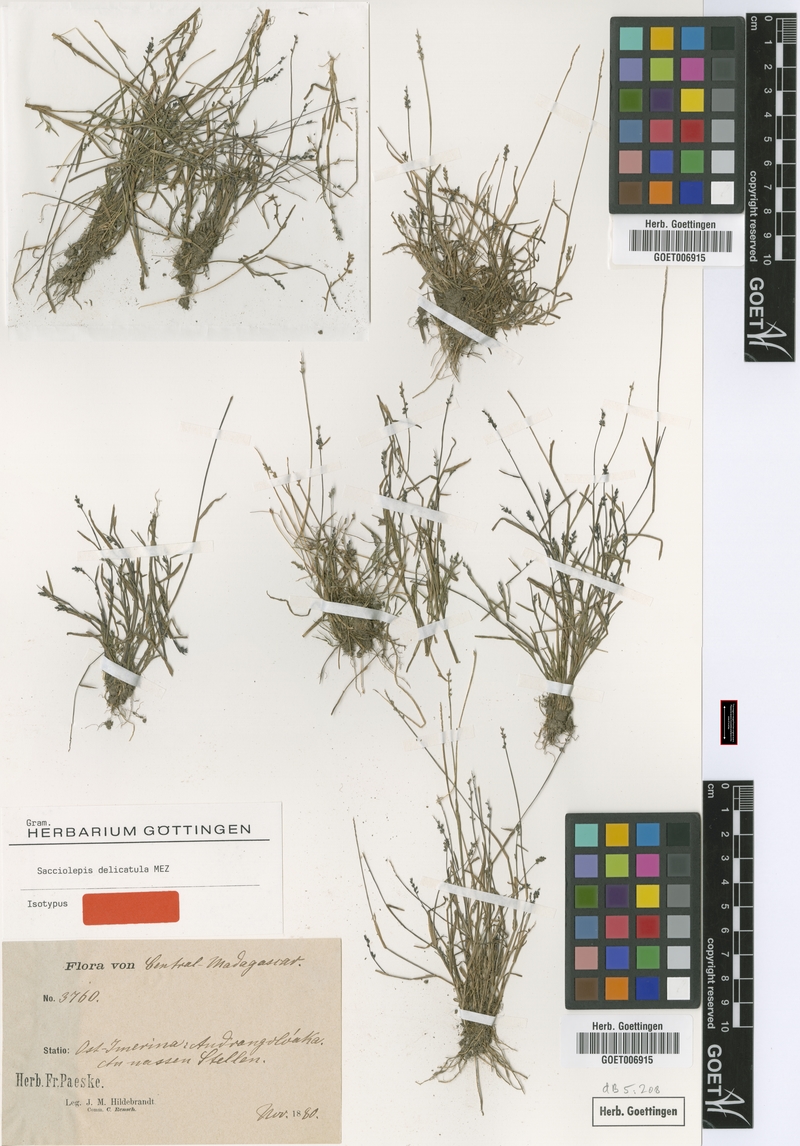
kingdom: Plantae
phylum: Tracheophyta
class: Liliopsida
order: Poales
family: Poaceae
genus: Sacciolepis
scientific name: Sacciolepis myosuroides
